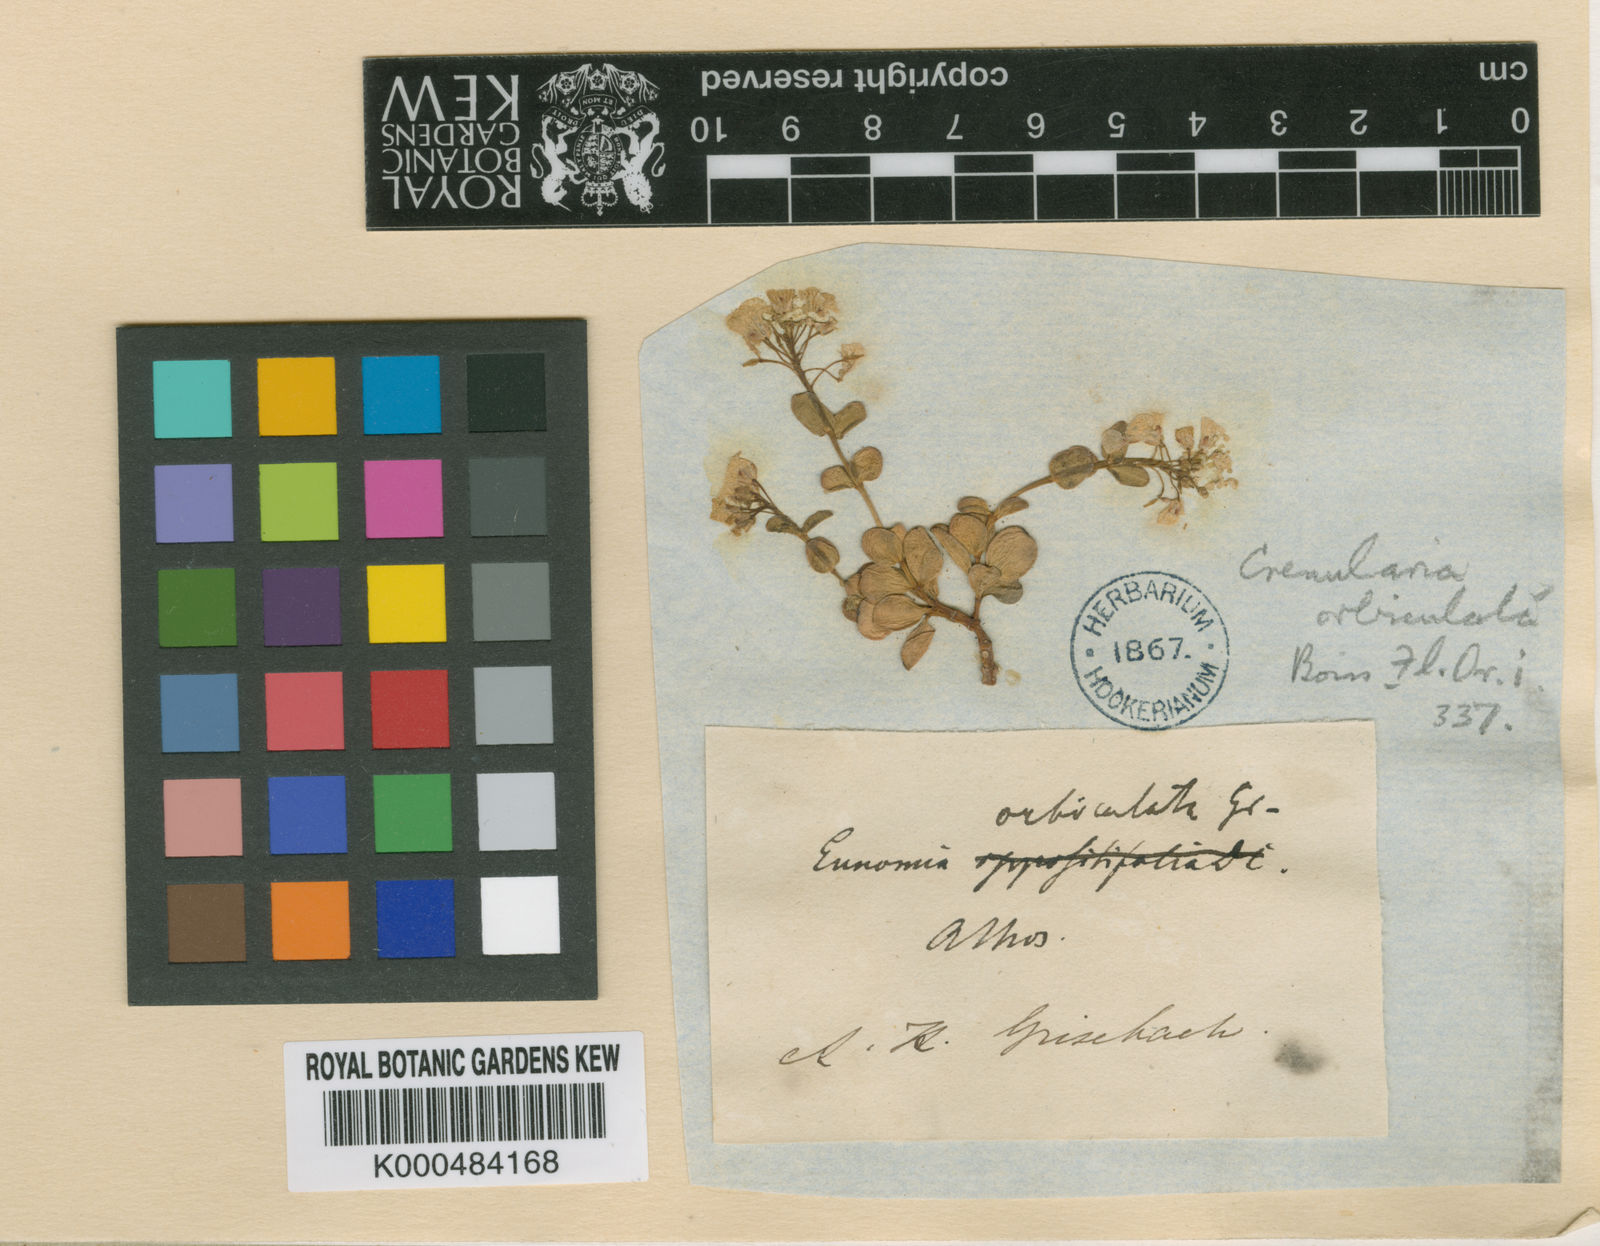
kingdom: Plantae
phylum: Tracheophyta
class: Magnoliopsida
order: Brassicales
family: Brassicaceae
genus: Aethionema
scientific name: Aethionema orbiculatum
